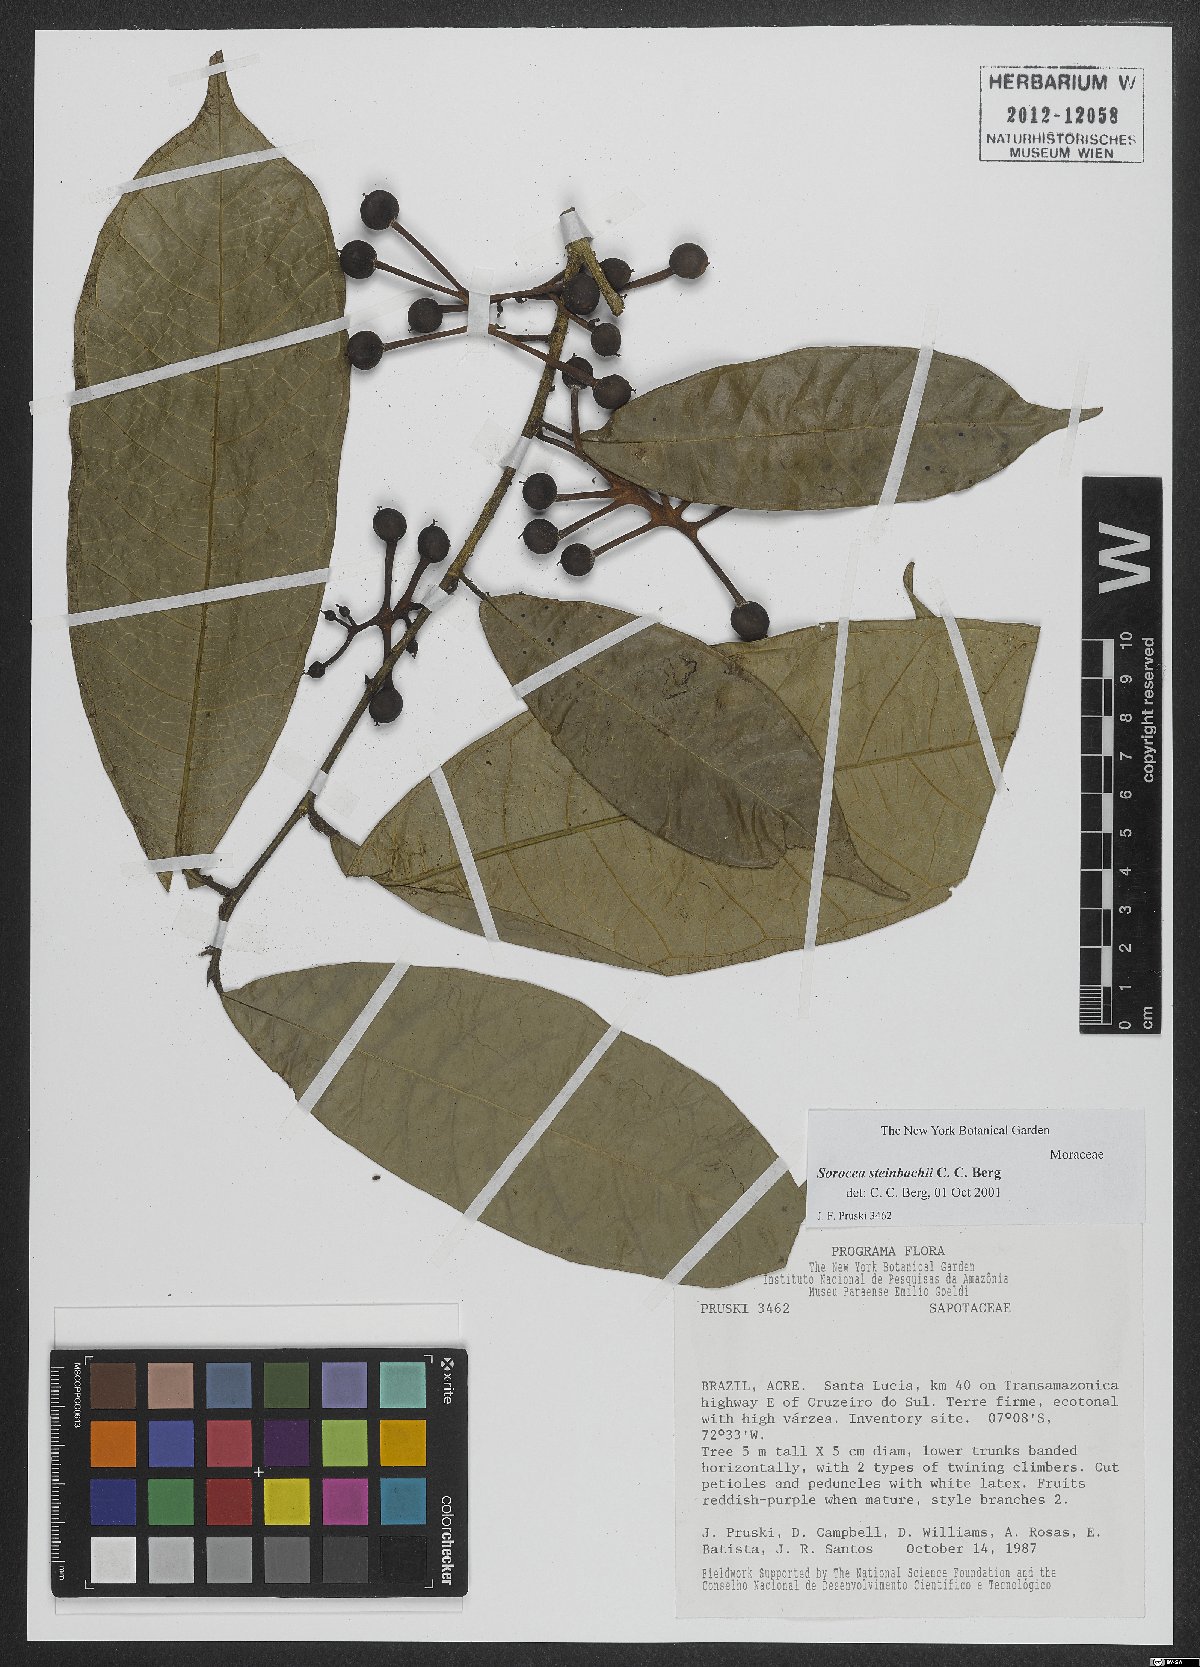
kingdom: Plantae
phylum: Tracheophyta
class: Magnoliopsida
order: Rosales
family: Moraceae
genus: Sorocea
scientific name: Sorocea steinbachii
